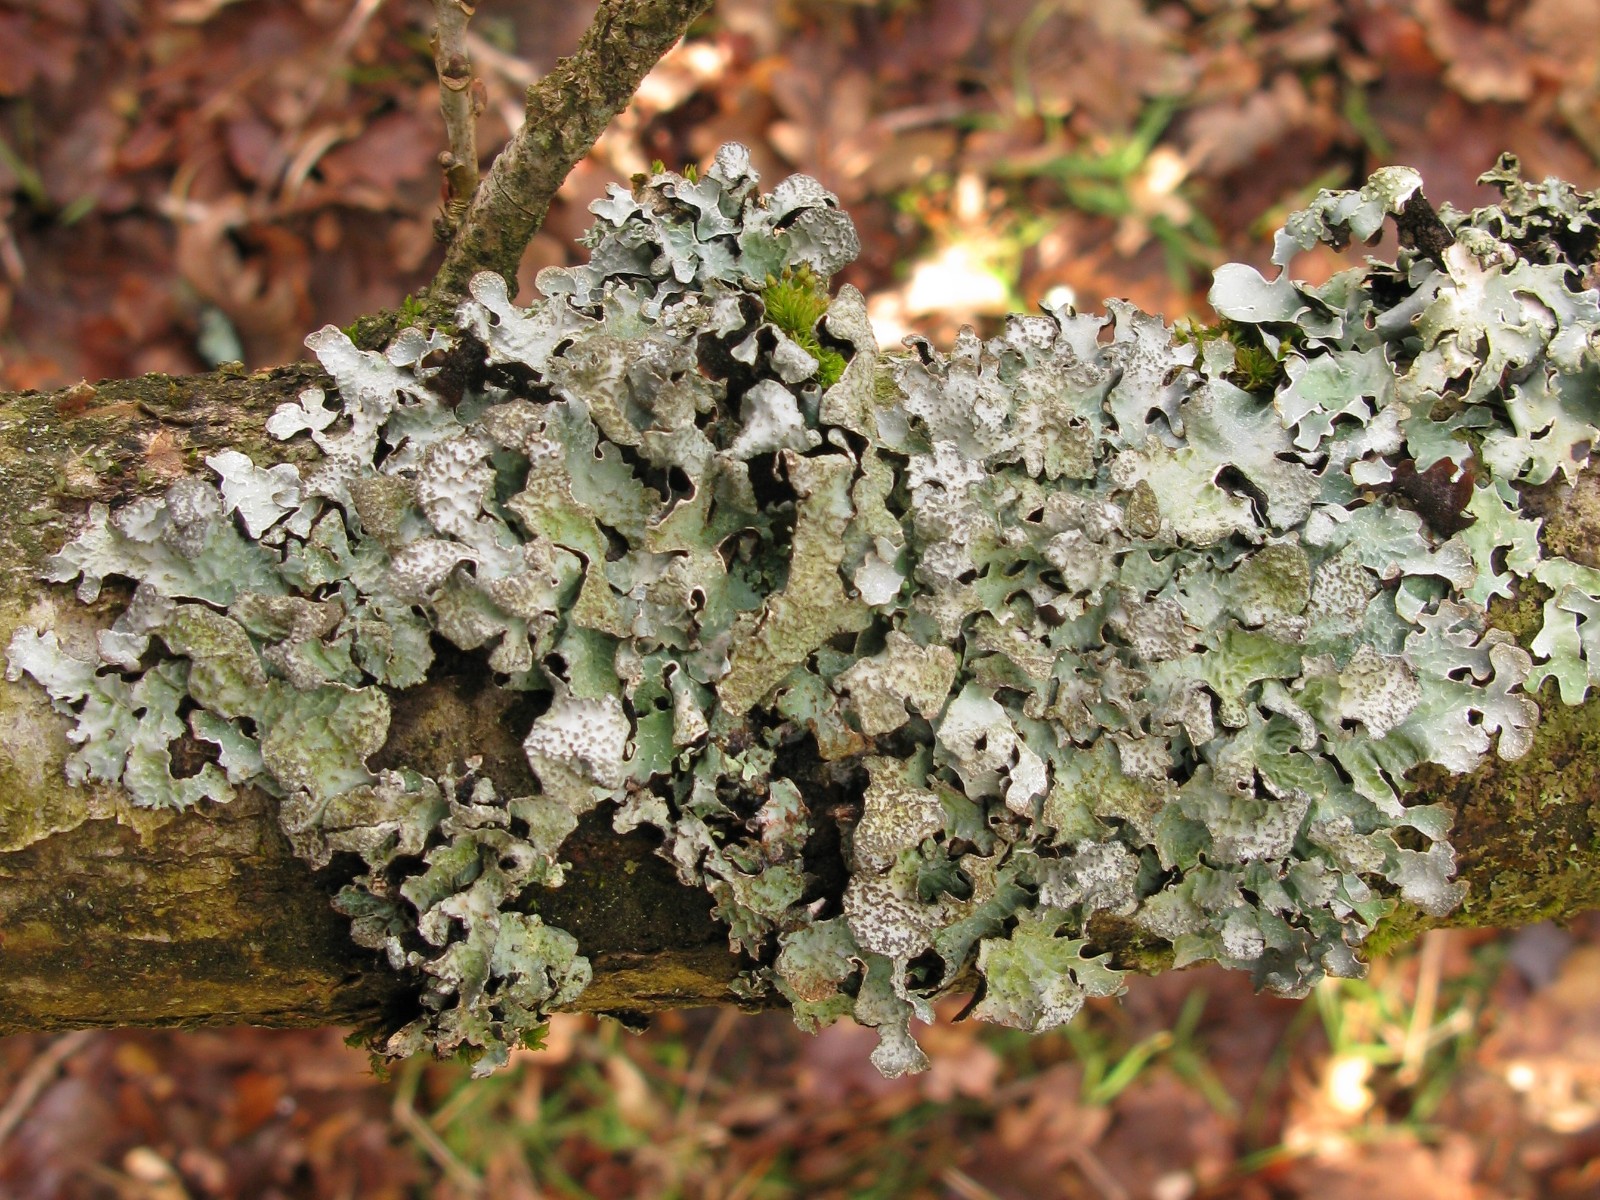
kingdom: Fungi
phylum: Ascomycota
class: Lecanoromycetes
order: Lecanorales
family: Parmeliaceae
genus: Parmelia
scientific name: Parmelia sulcata
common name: rynket skållav
